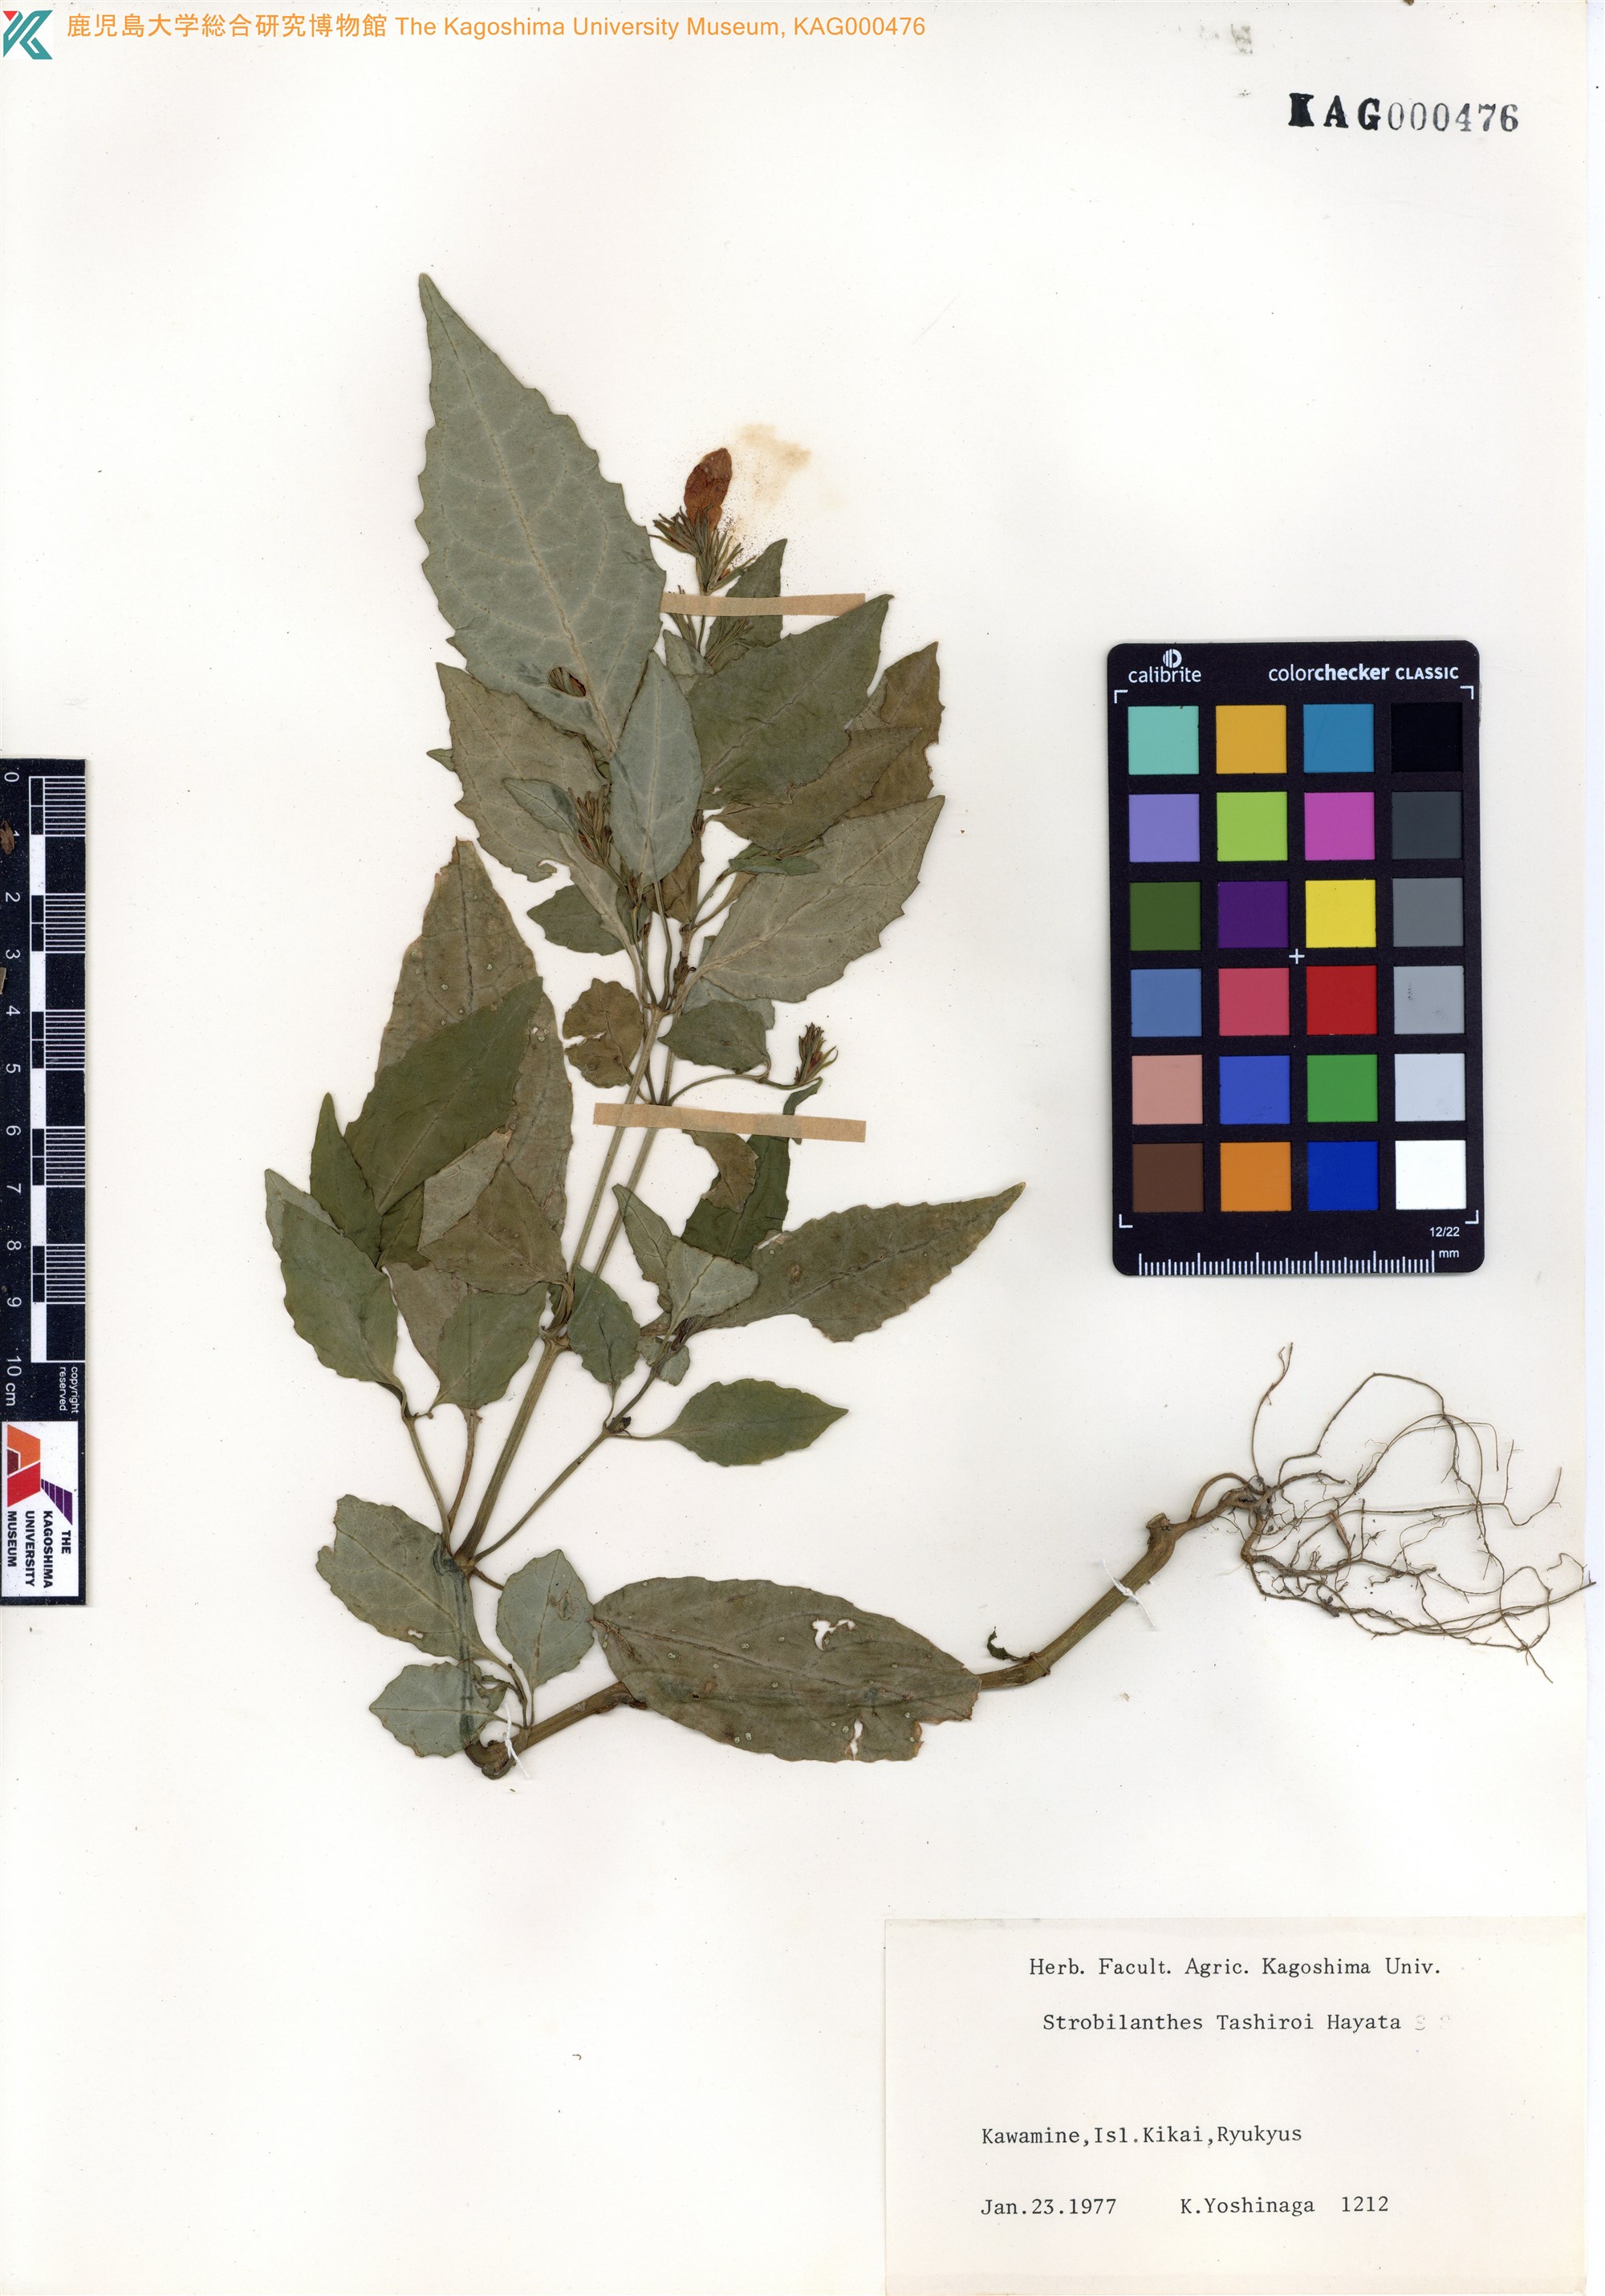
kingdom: Plantae
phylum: Tracheophyta
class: Magnoliopsida
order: Lamiales
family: Acanthaceae
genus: Strobilanthes
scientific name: Strobilanthes flexicaulis
